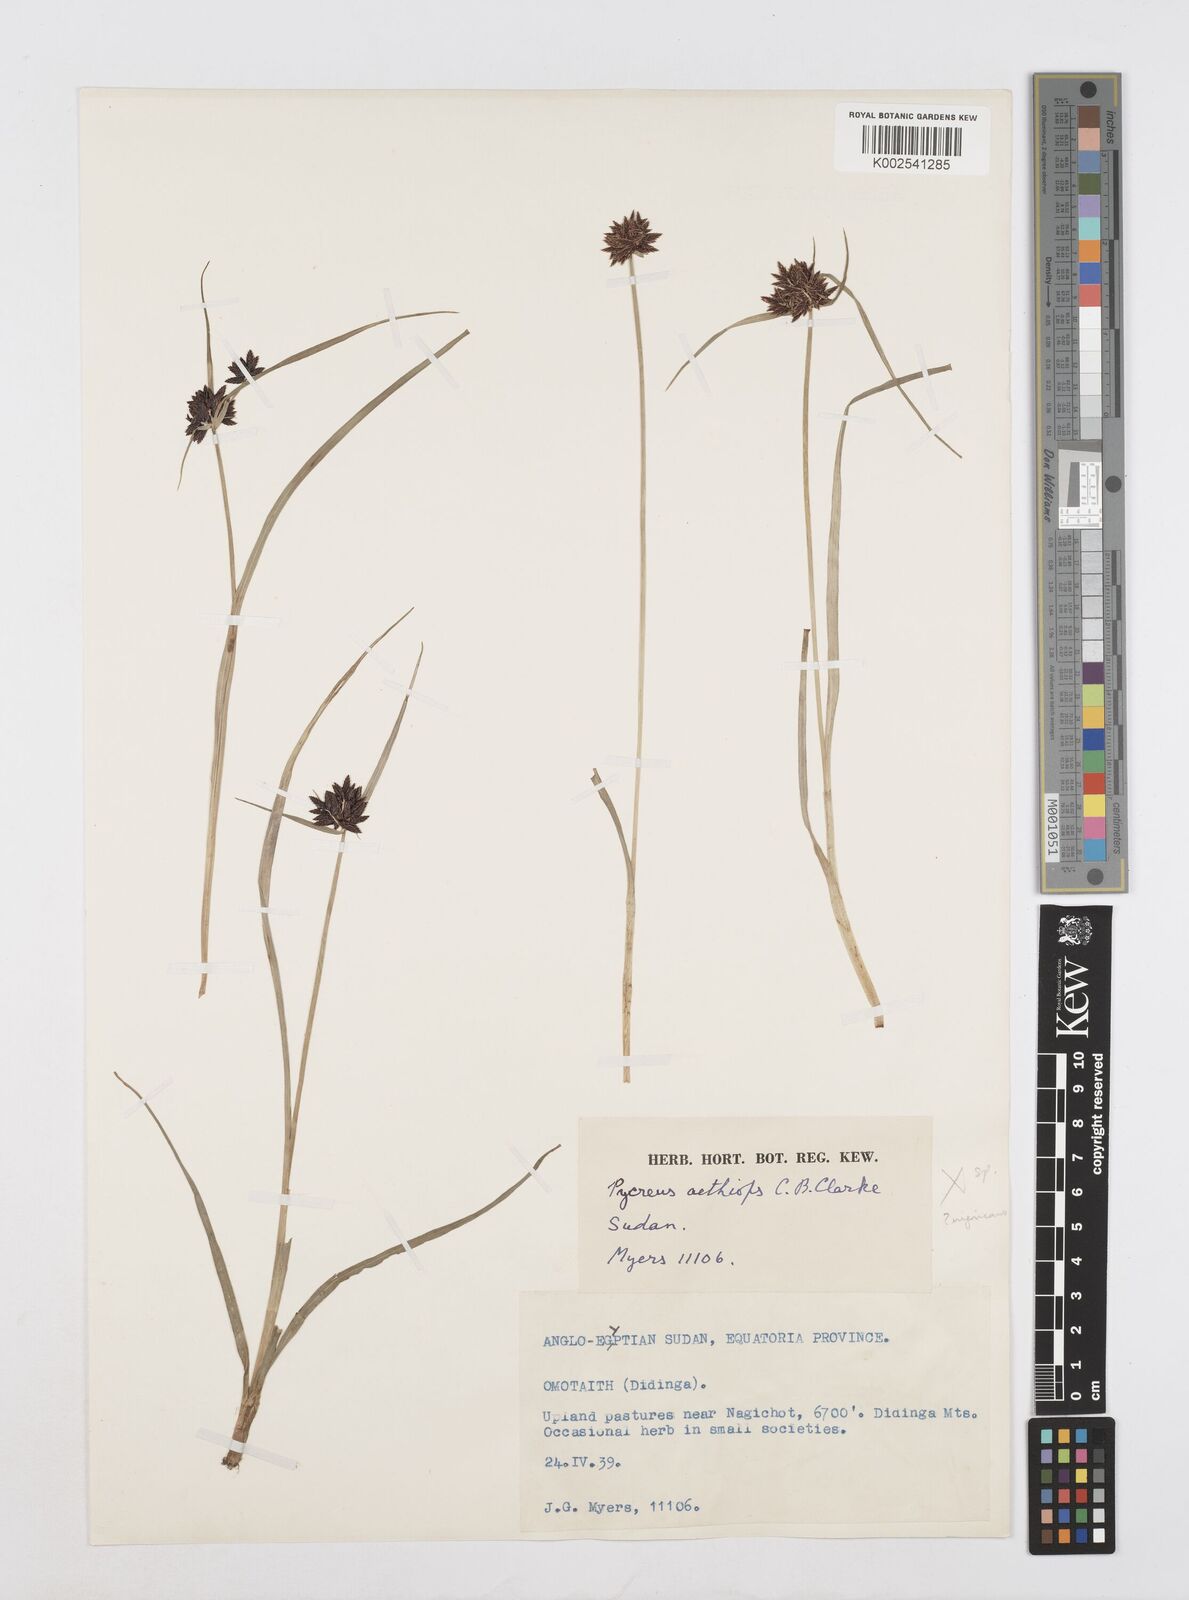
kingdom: Plantae
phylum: Tracheophyta
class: Liliopsida
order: Poales
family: Cyperaceae
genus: Cyperus
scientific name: Cyperus
